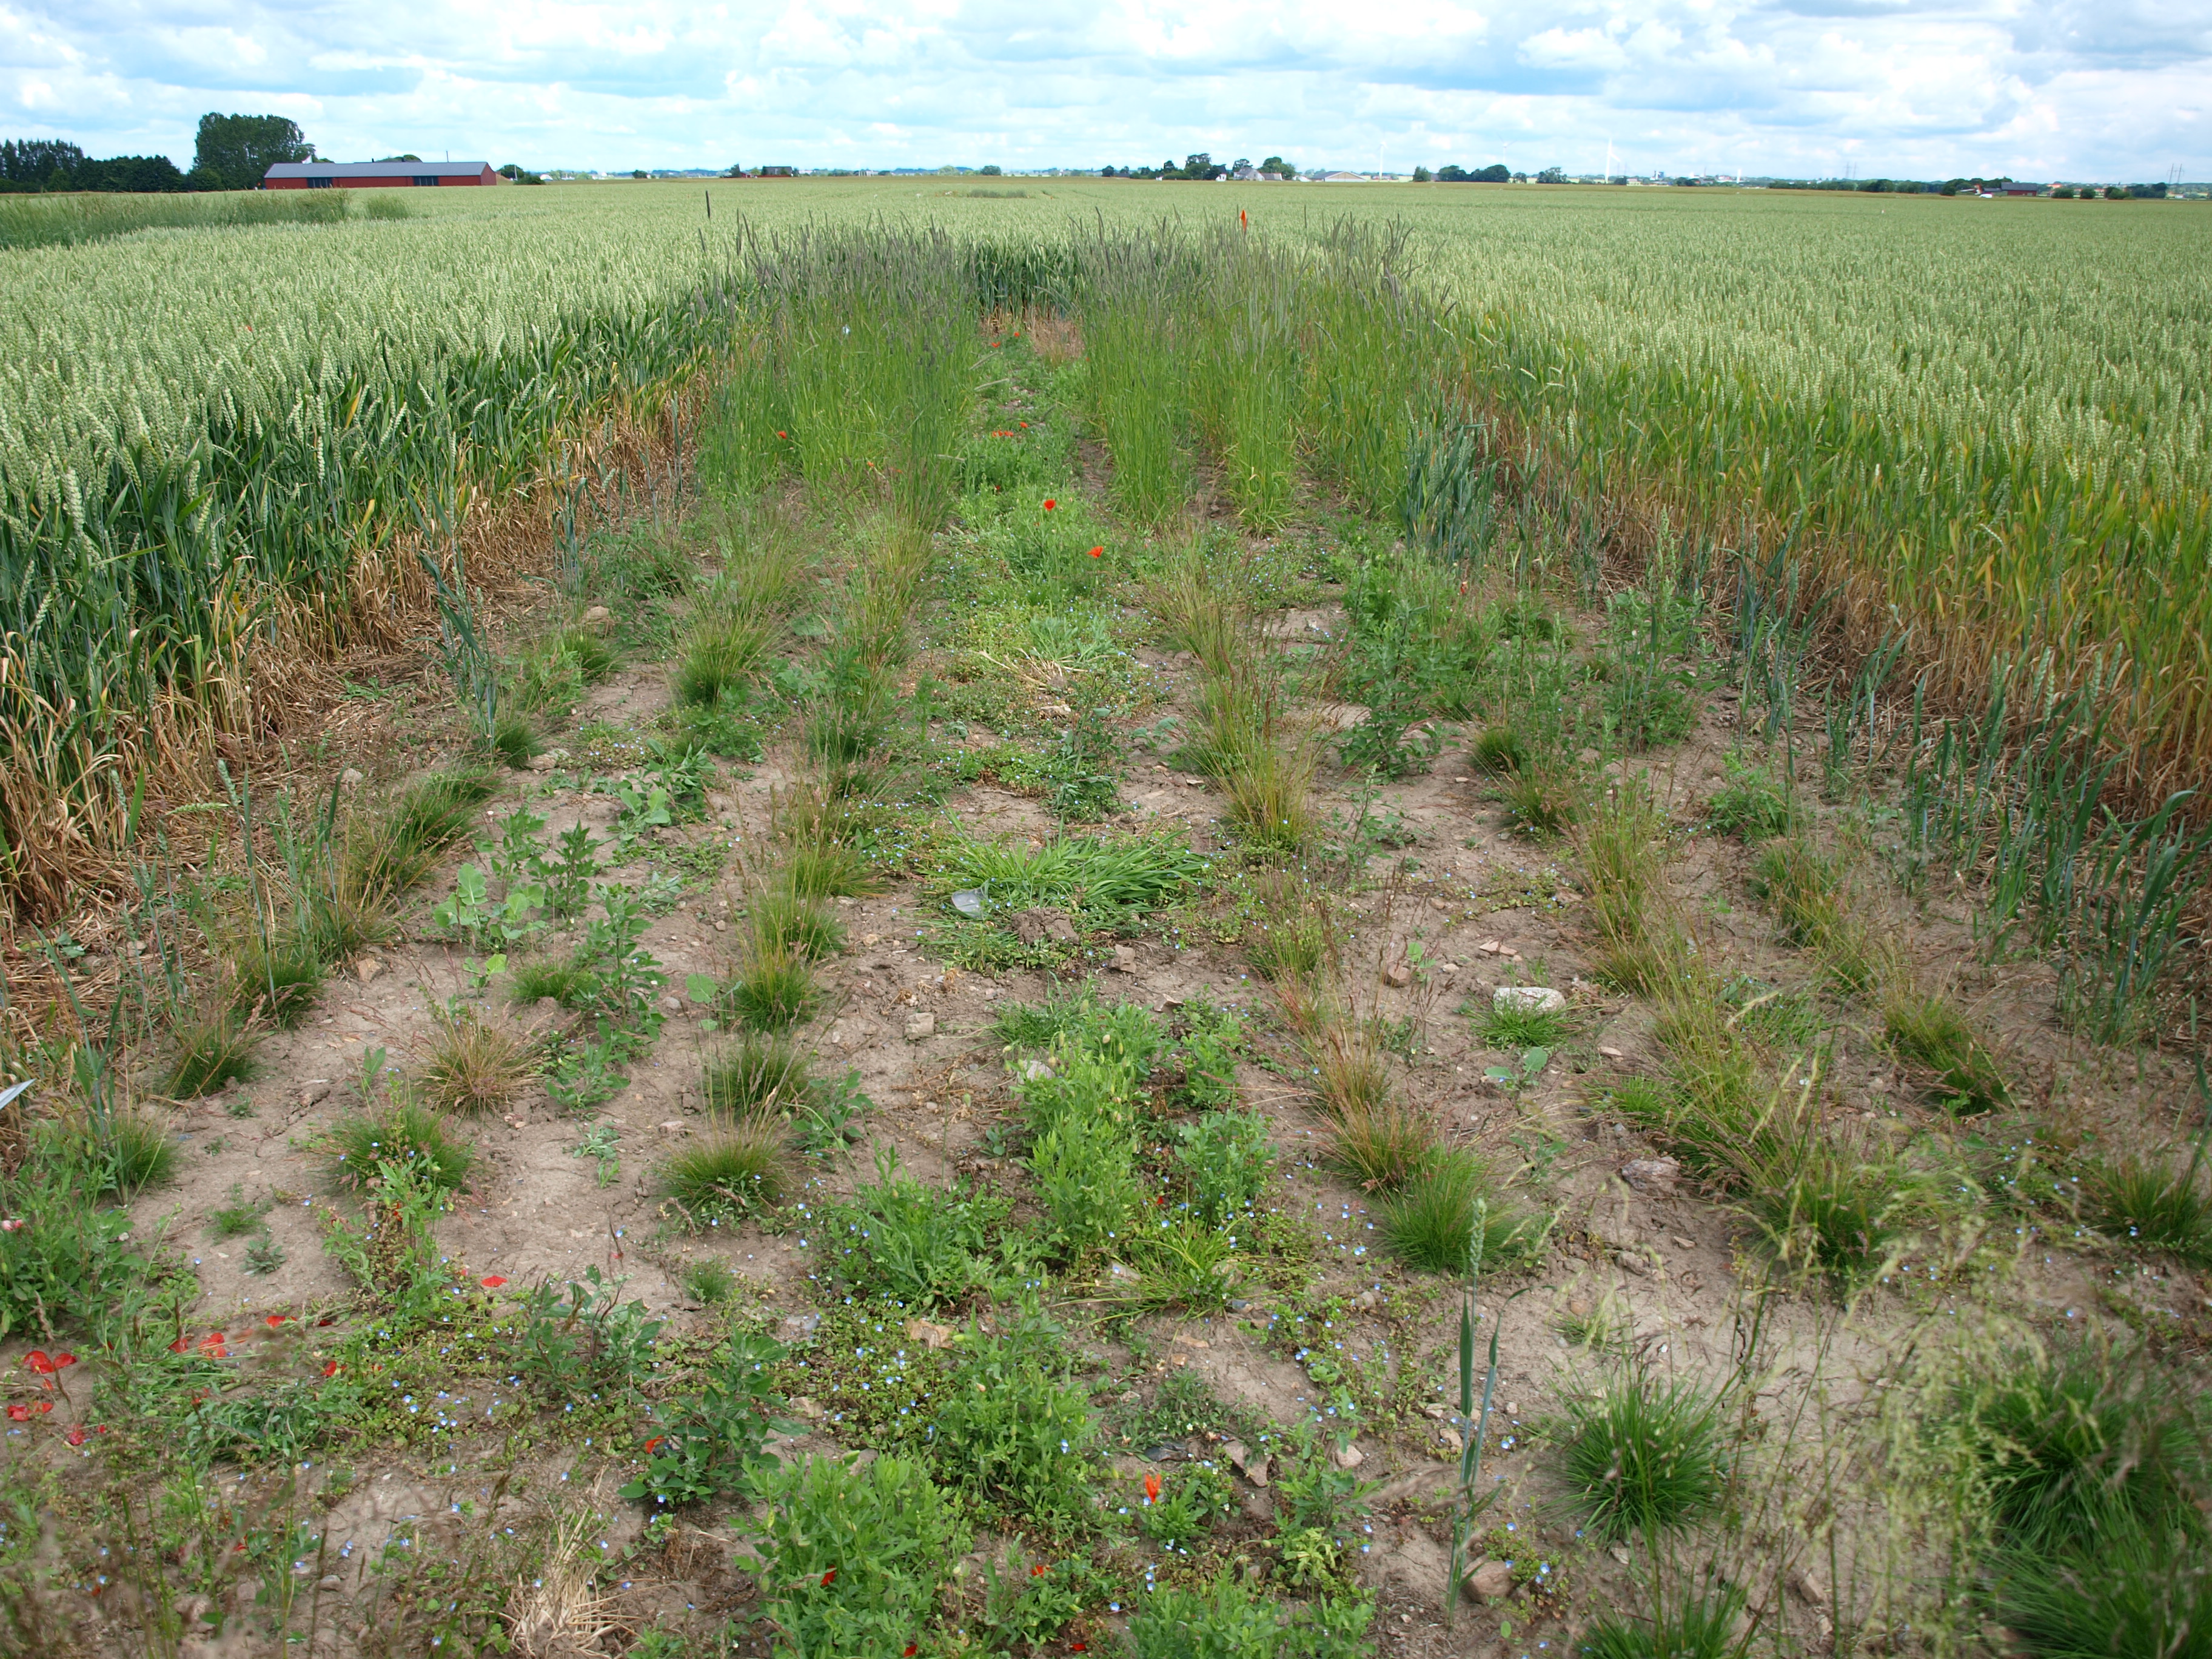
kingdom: Plantae
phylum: Tracheophyta
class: Liliopsida
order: Poales
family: Poaceae
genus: Festuca
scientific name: Festuca ovina
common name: Sheep fescue
